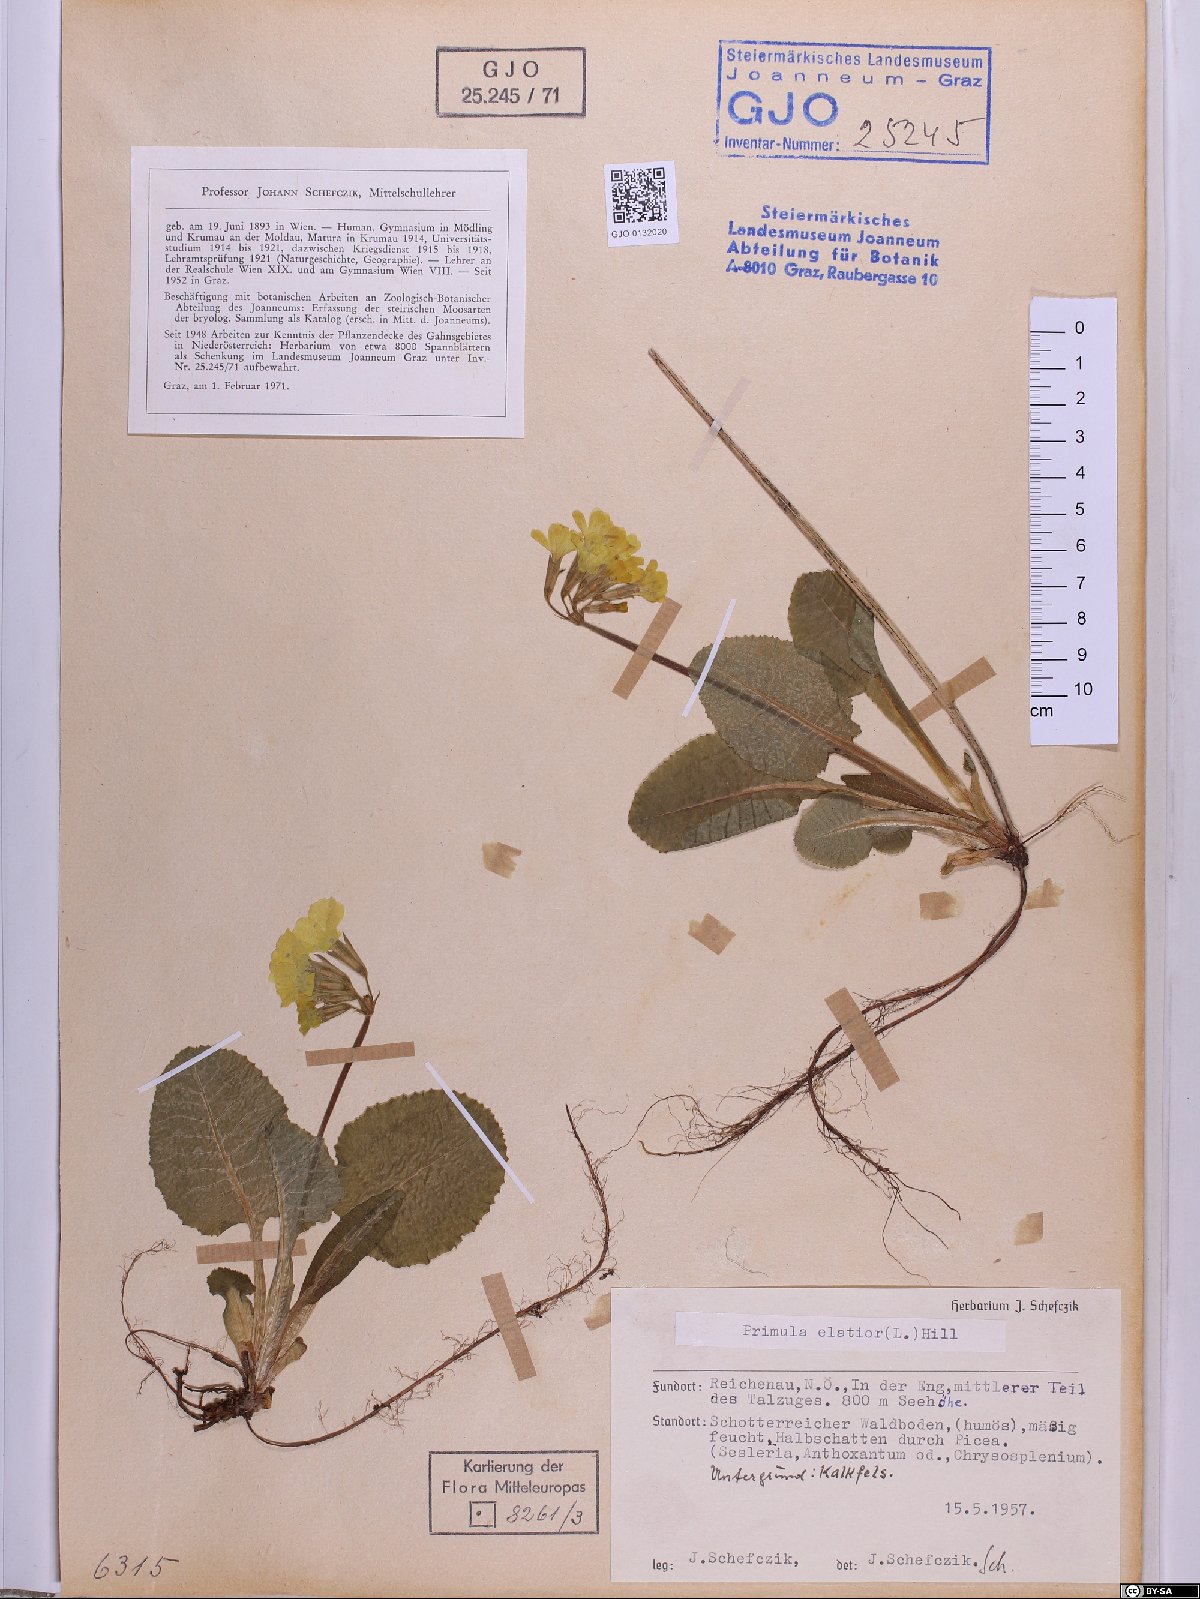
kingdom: Plantae
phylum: Tracheophyta
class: Magnoliopsida
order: Ericales
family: Primulaceae
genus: Primula
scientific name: Primula elatior
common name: Oxlip
